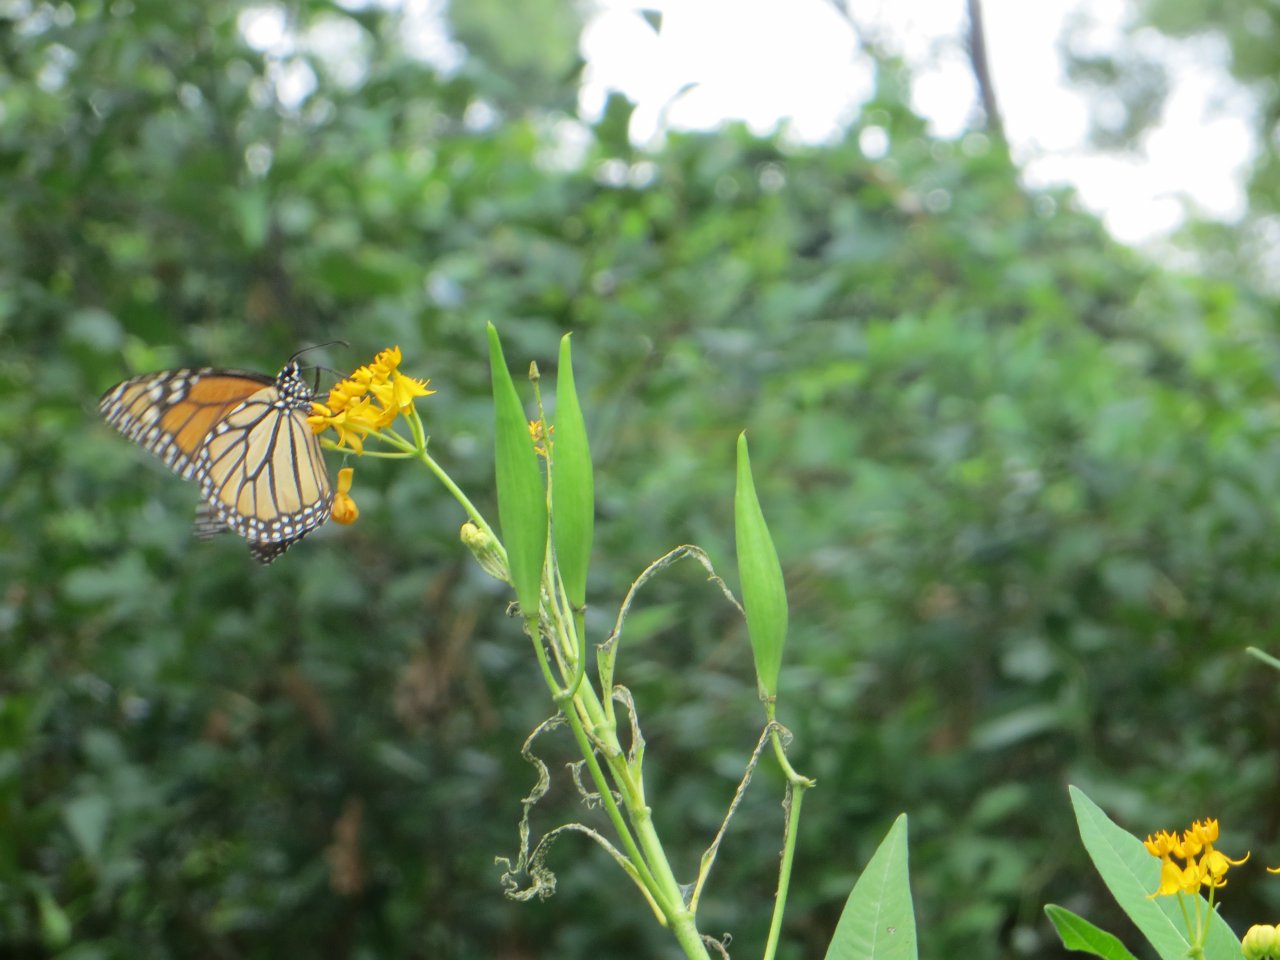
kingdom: Animalia
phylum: Arthropoda
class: Insecta
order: Lepidoptera
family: Nymphalidae
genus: Danaus
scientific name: Danaus plexippus
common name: Monarch
